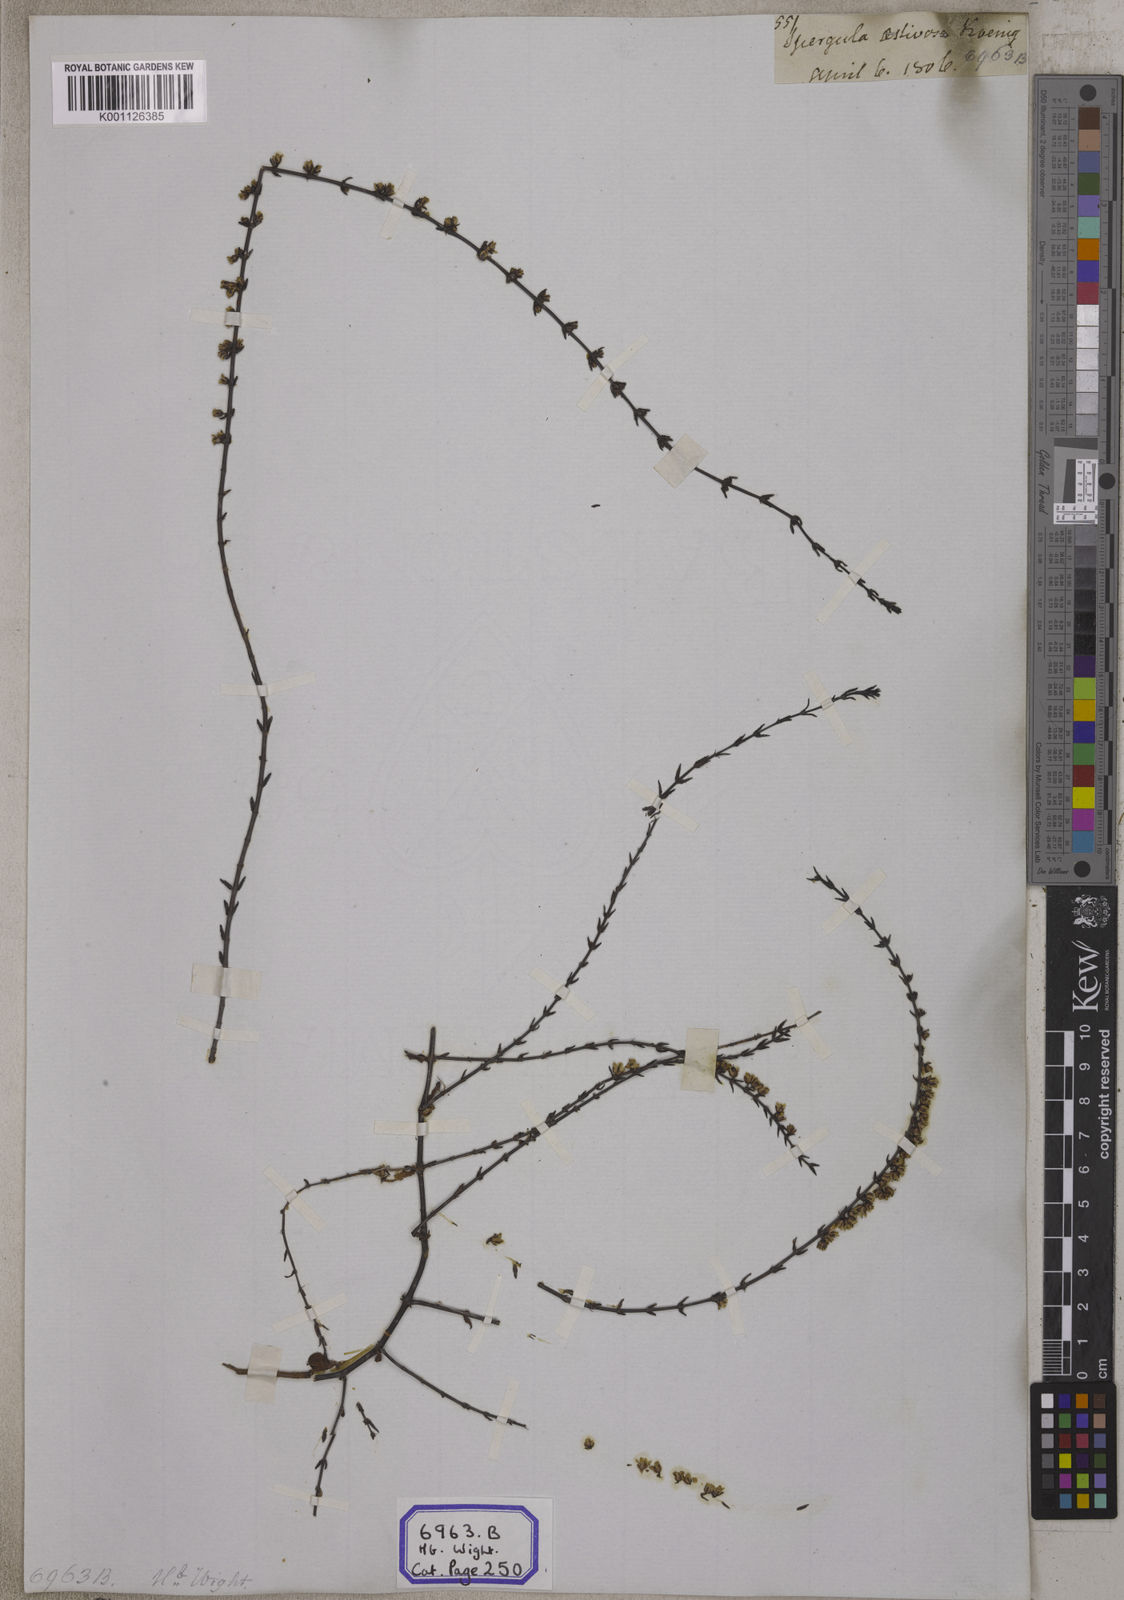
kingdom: Plantae
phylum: Tracheophyta
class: Magnoliopsida
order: Caryophyllales
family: Caryophyllaceae
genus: Spergula
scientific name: Spergula
